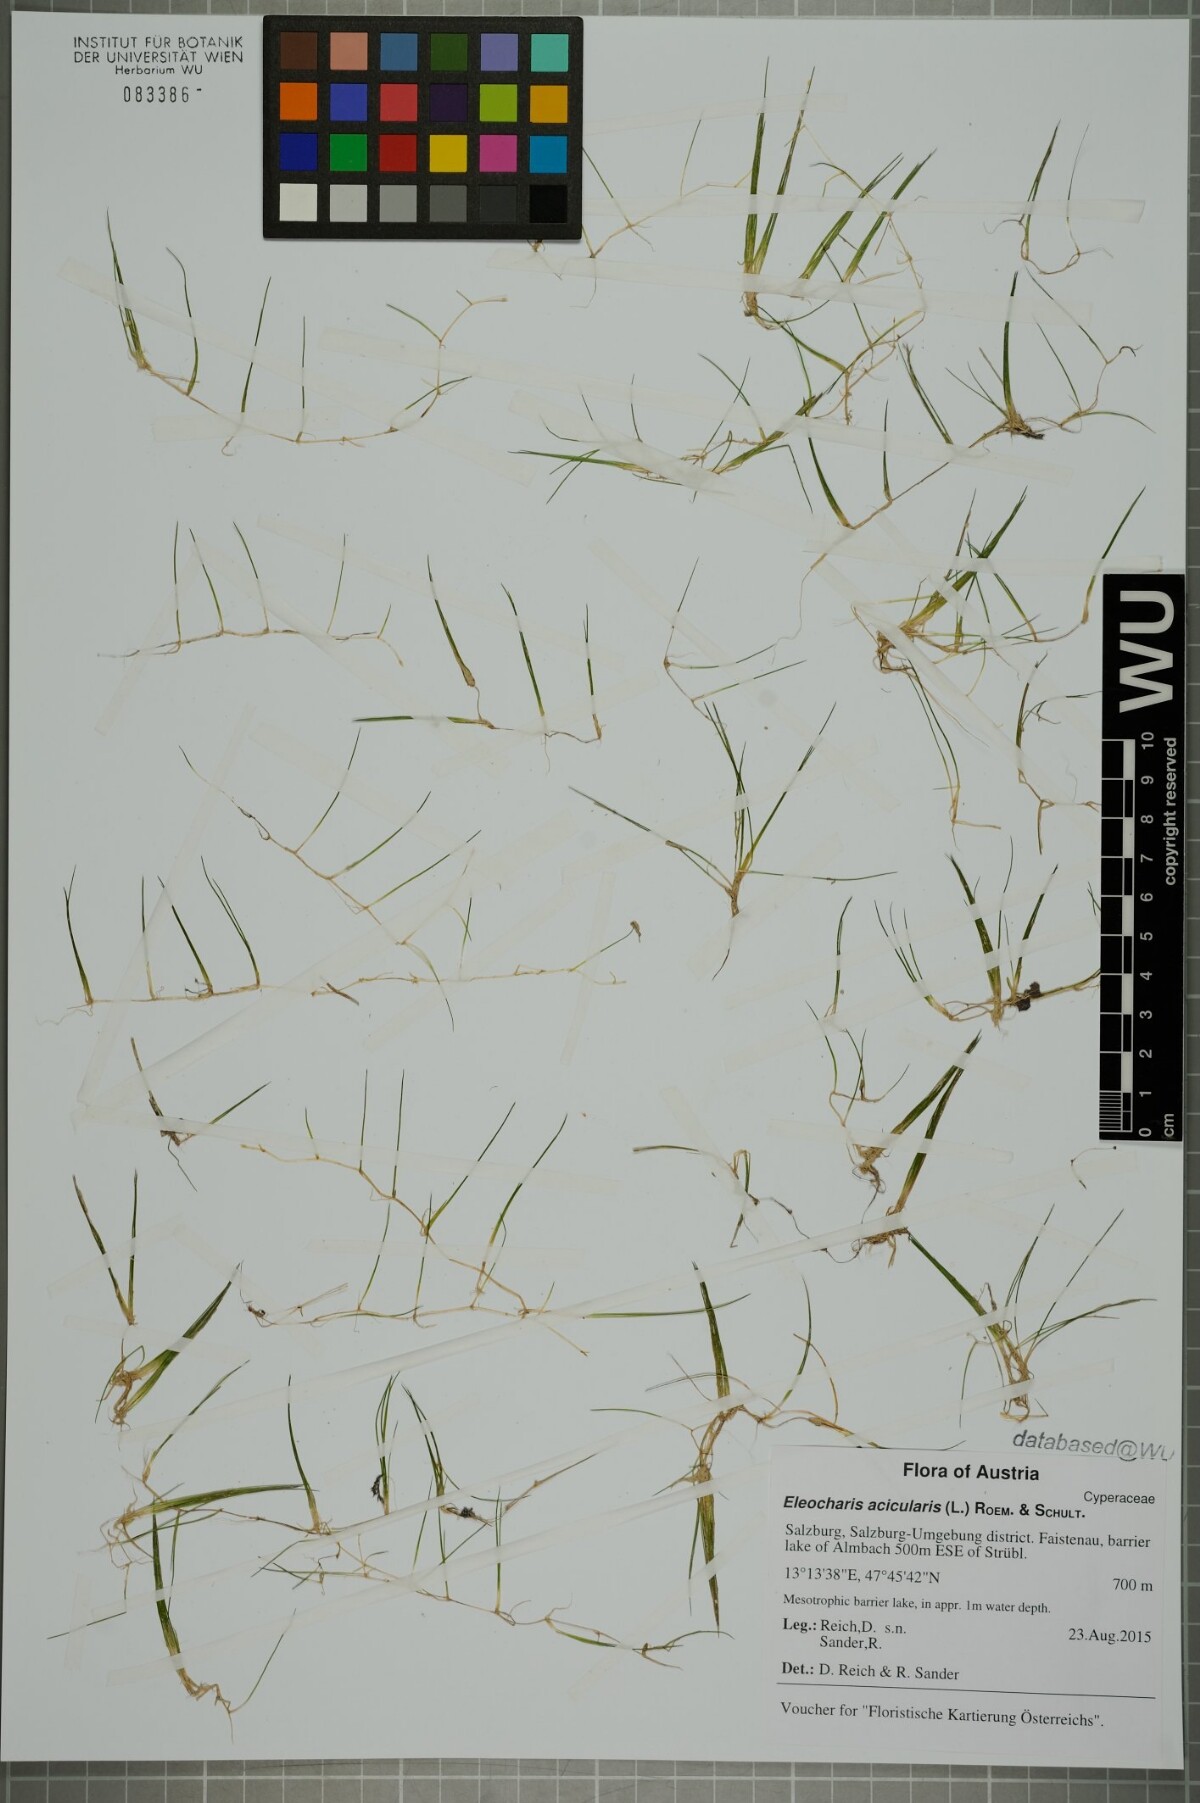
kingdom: Plantae
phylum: Tracheophyta
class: Liliopsida
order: Poales
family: Cyperaceae
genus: Eleocharis
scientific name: Eleocharis acicularis
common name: Needle spike-rush
